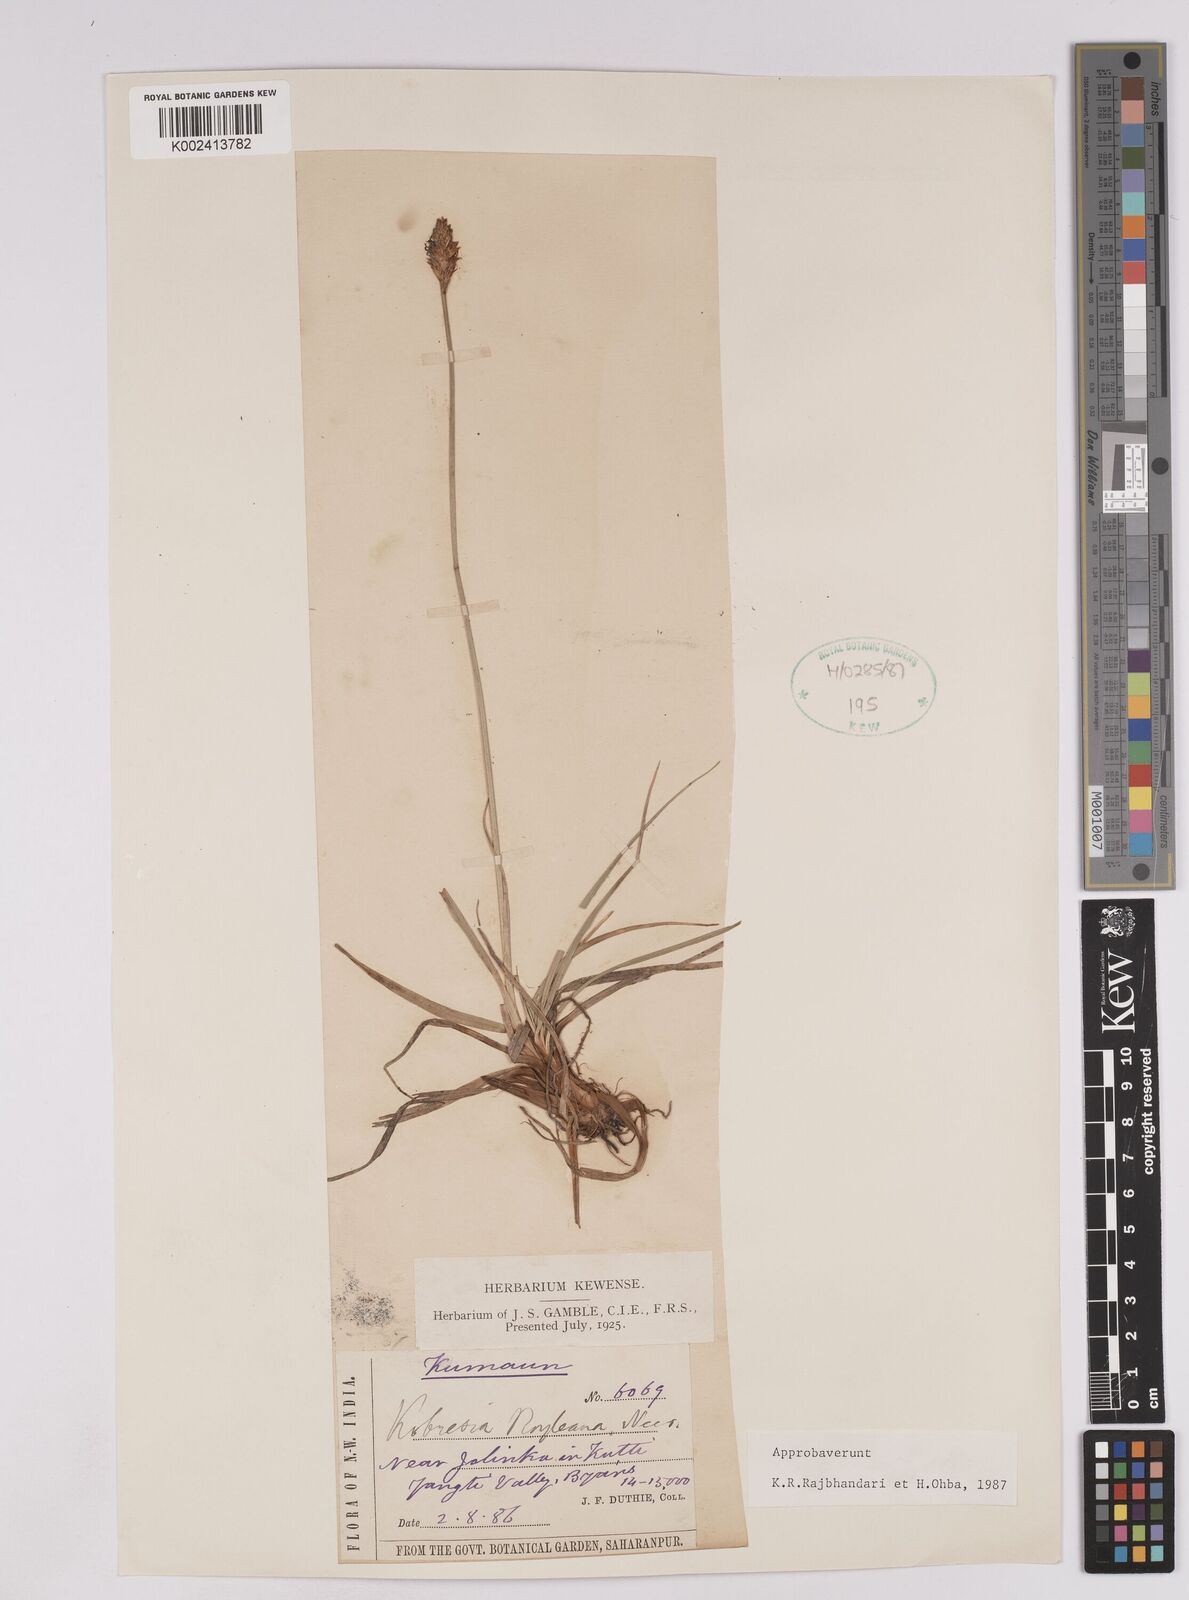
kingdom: Plantae
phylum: Tracheophyta
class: Liliopsida
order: Poales
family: Cyperaceae
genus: Carex
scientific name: Carex kokanica
